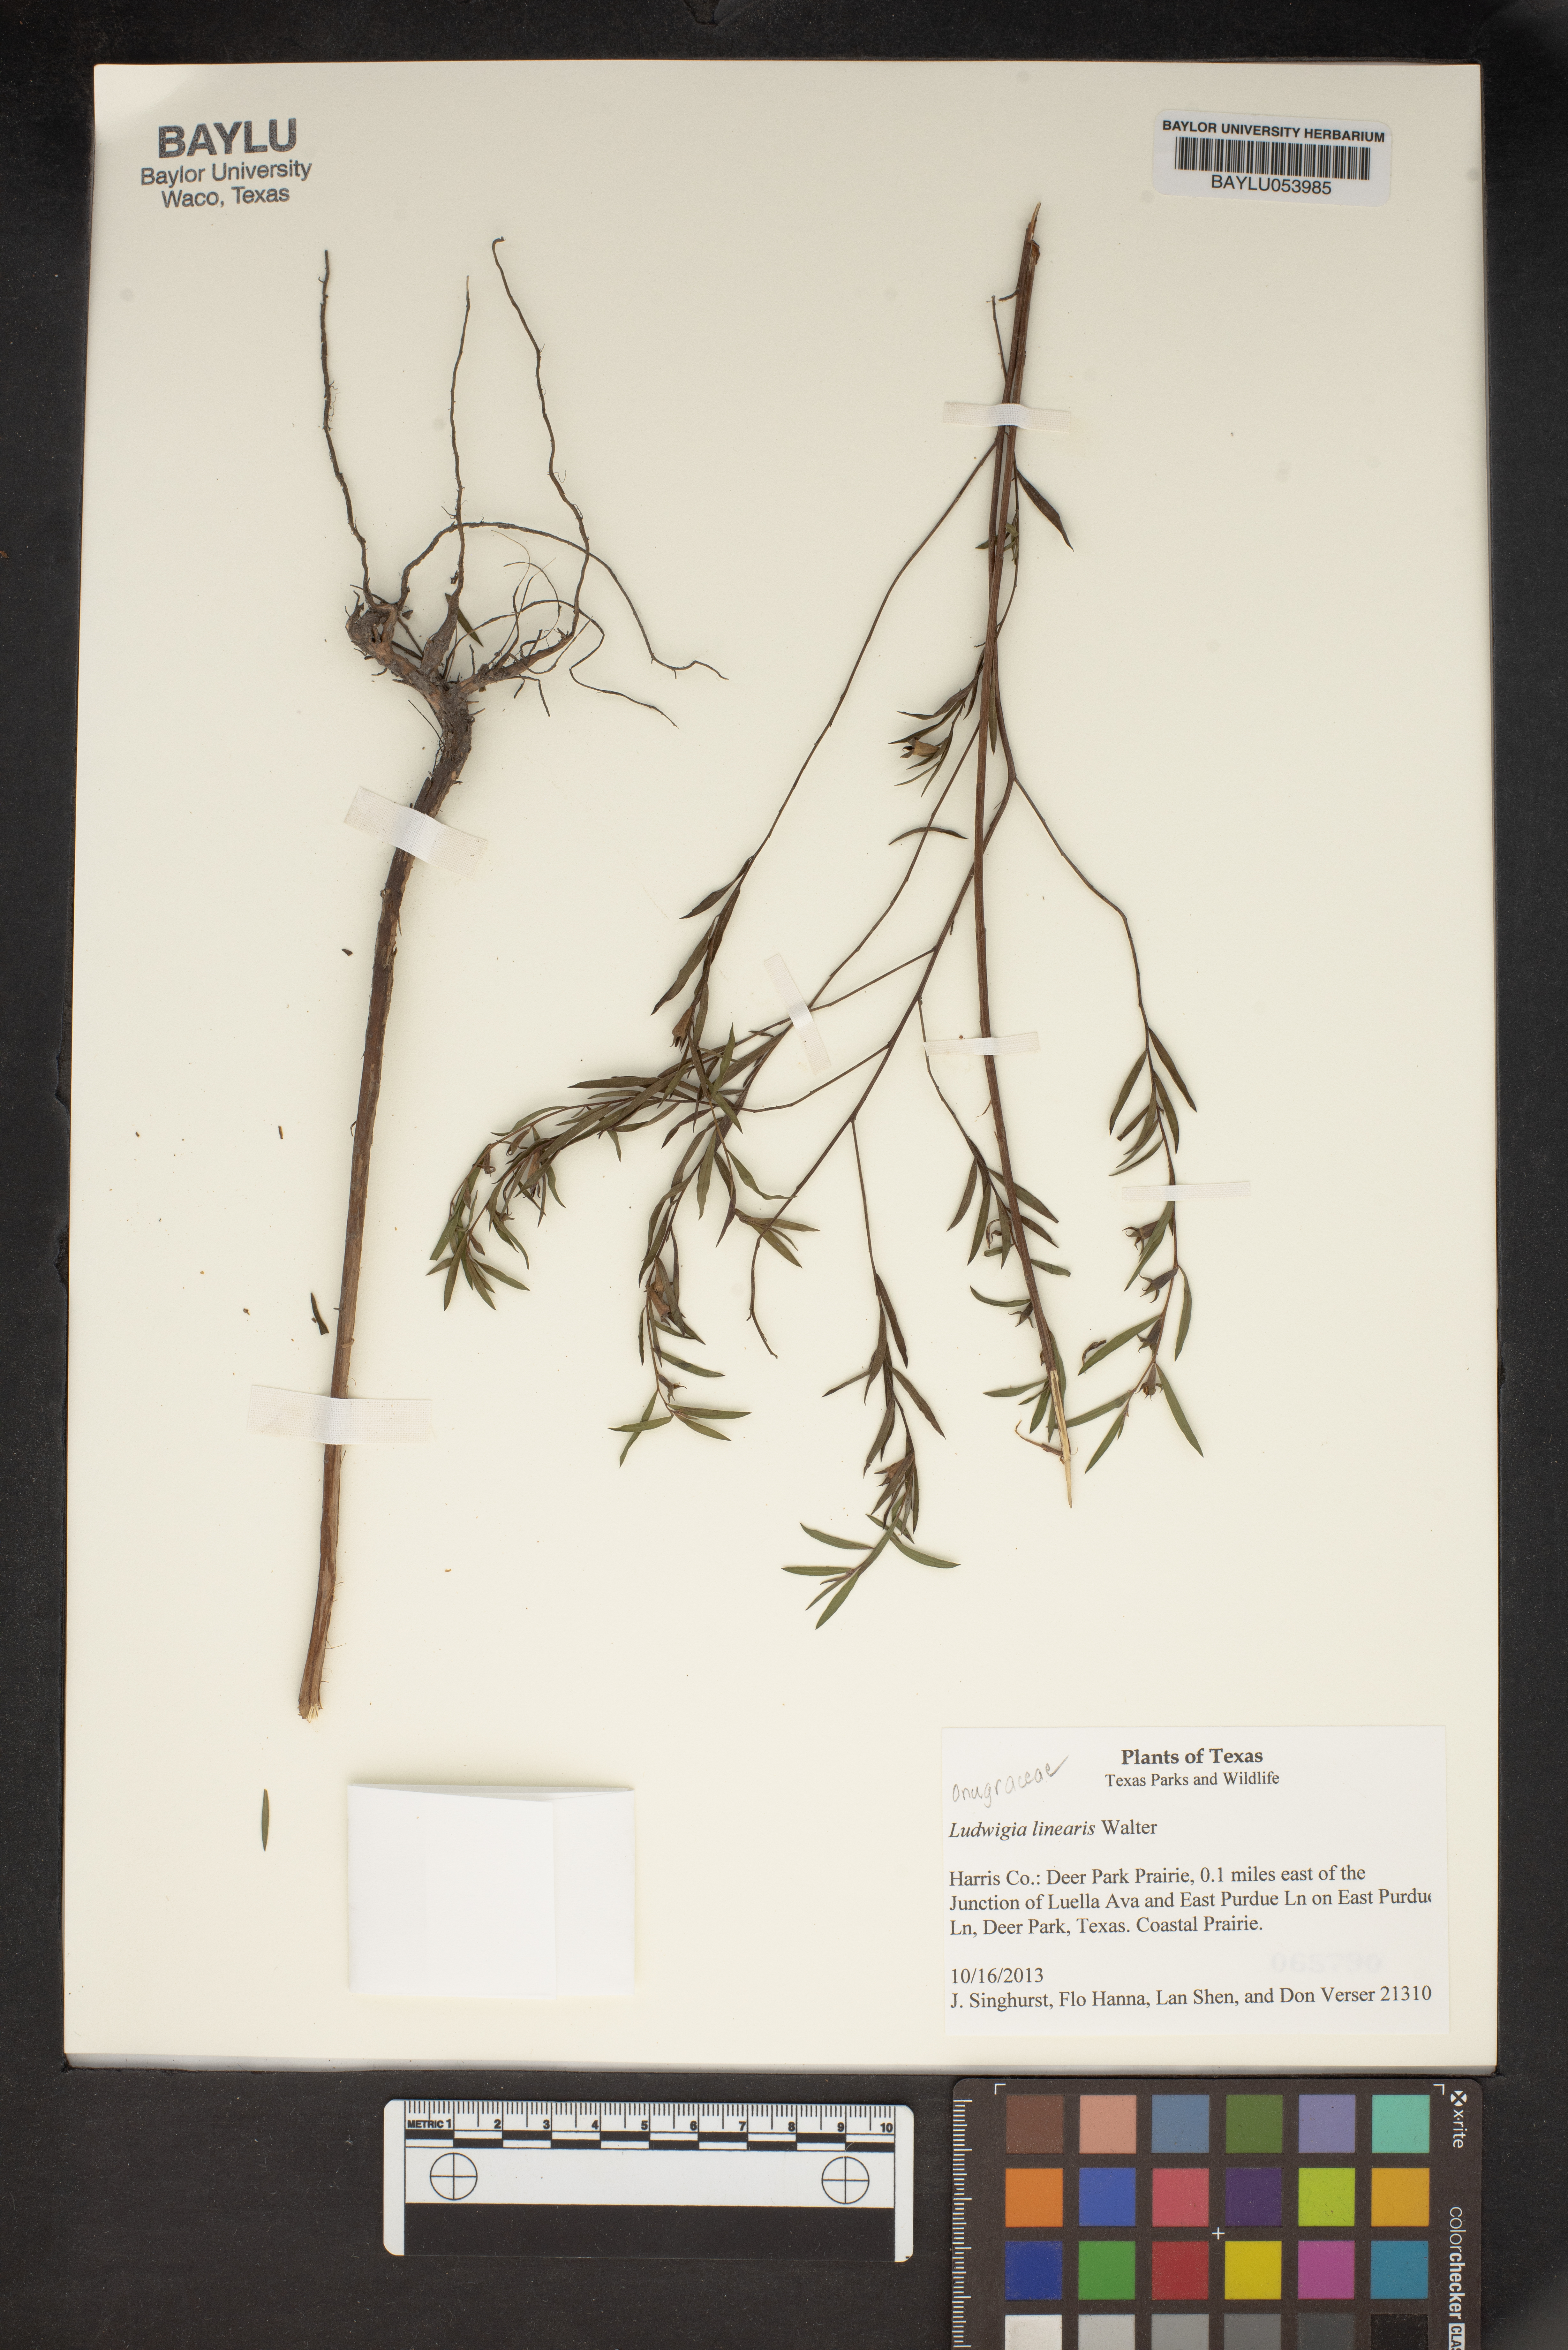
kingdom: Plantae
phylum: Tracheophyta
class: Magnoliopsida
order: Myrtales
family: Onagraceae
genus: Ludwigia
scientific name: Ludwigia linearis
